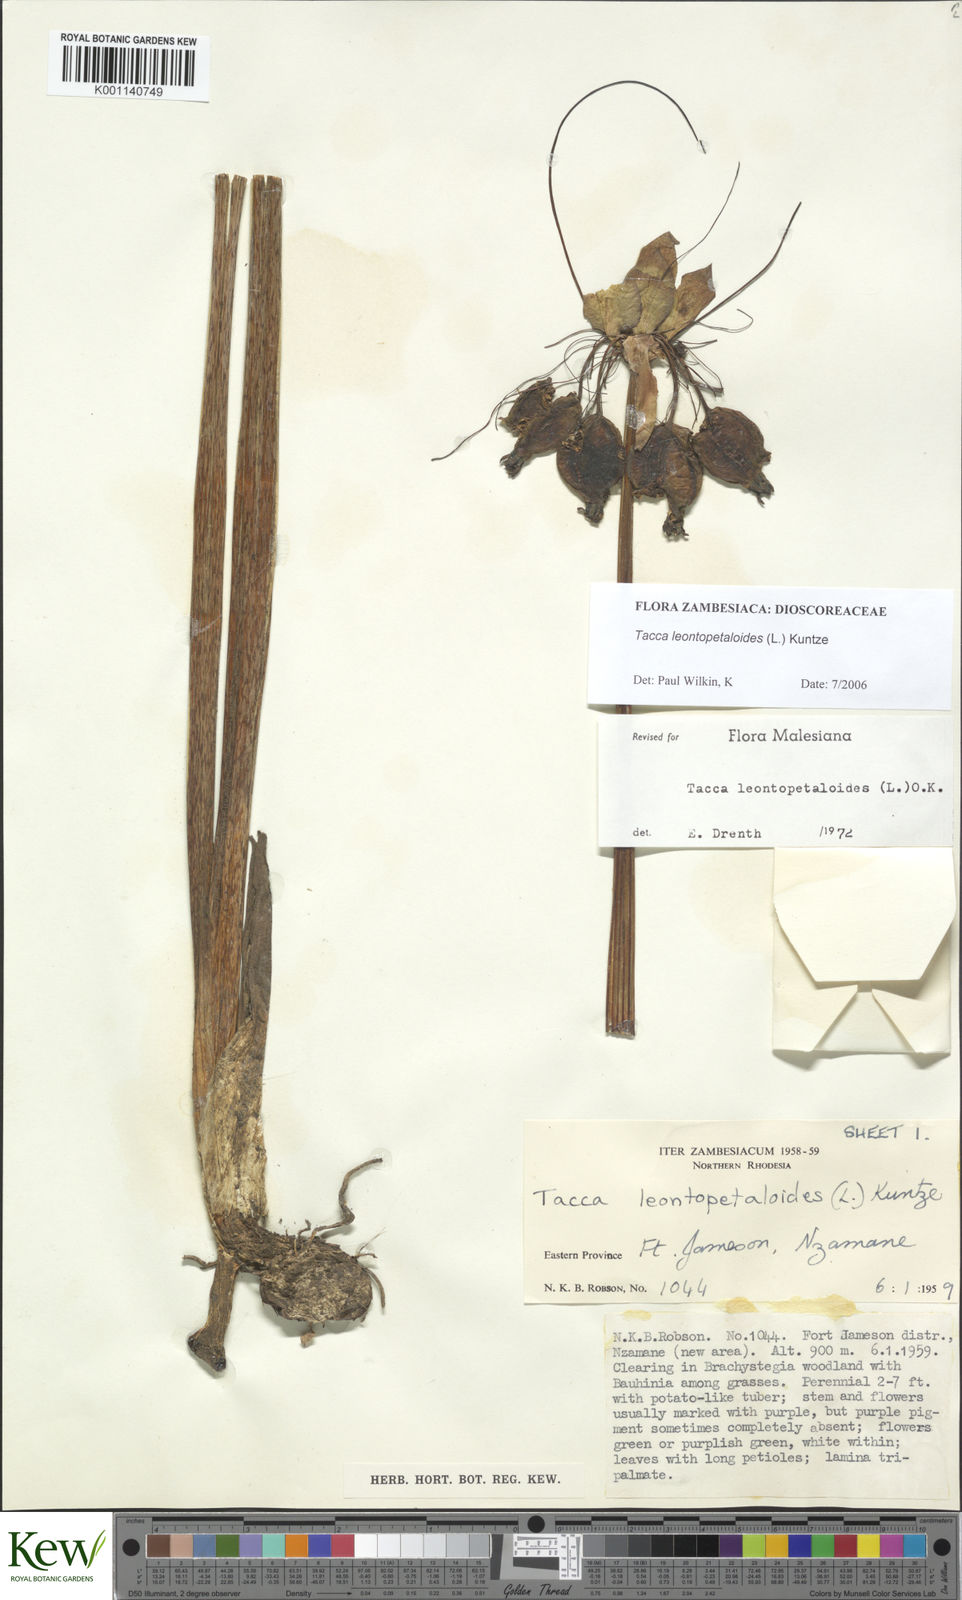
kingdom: Plantae
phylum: Tracheophyta
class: Liliopsida
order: Dioscoreales
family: Dioscoreaceae
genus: Tacca
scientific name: Tacca leontopetaloides
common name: Arrowroot
